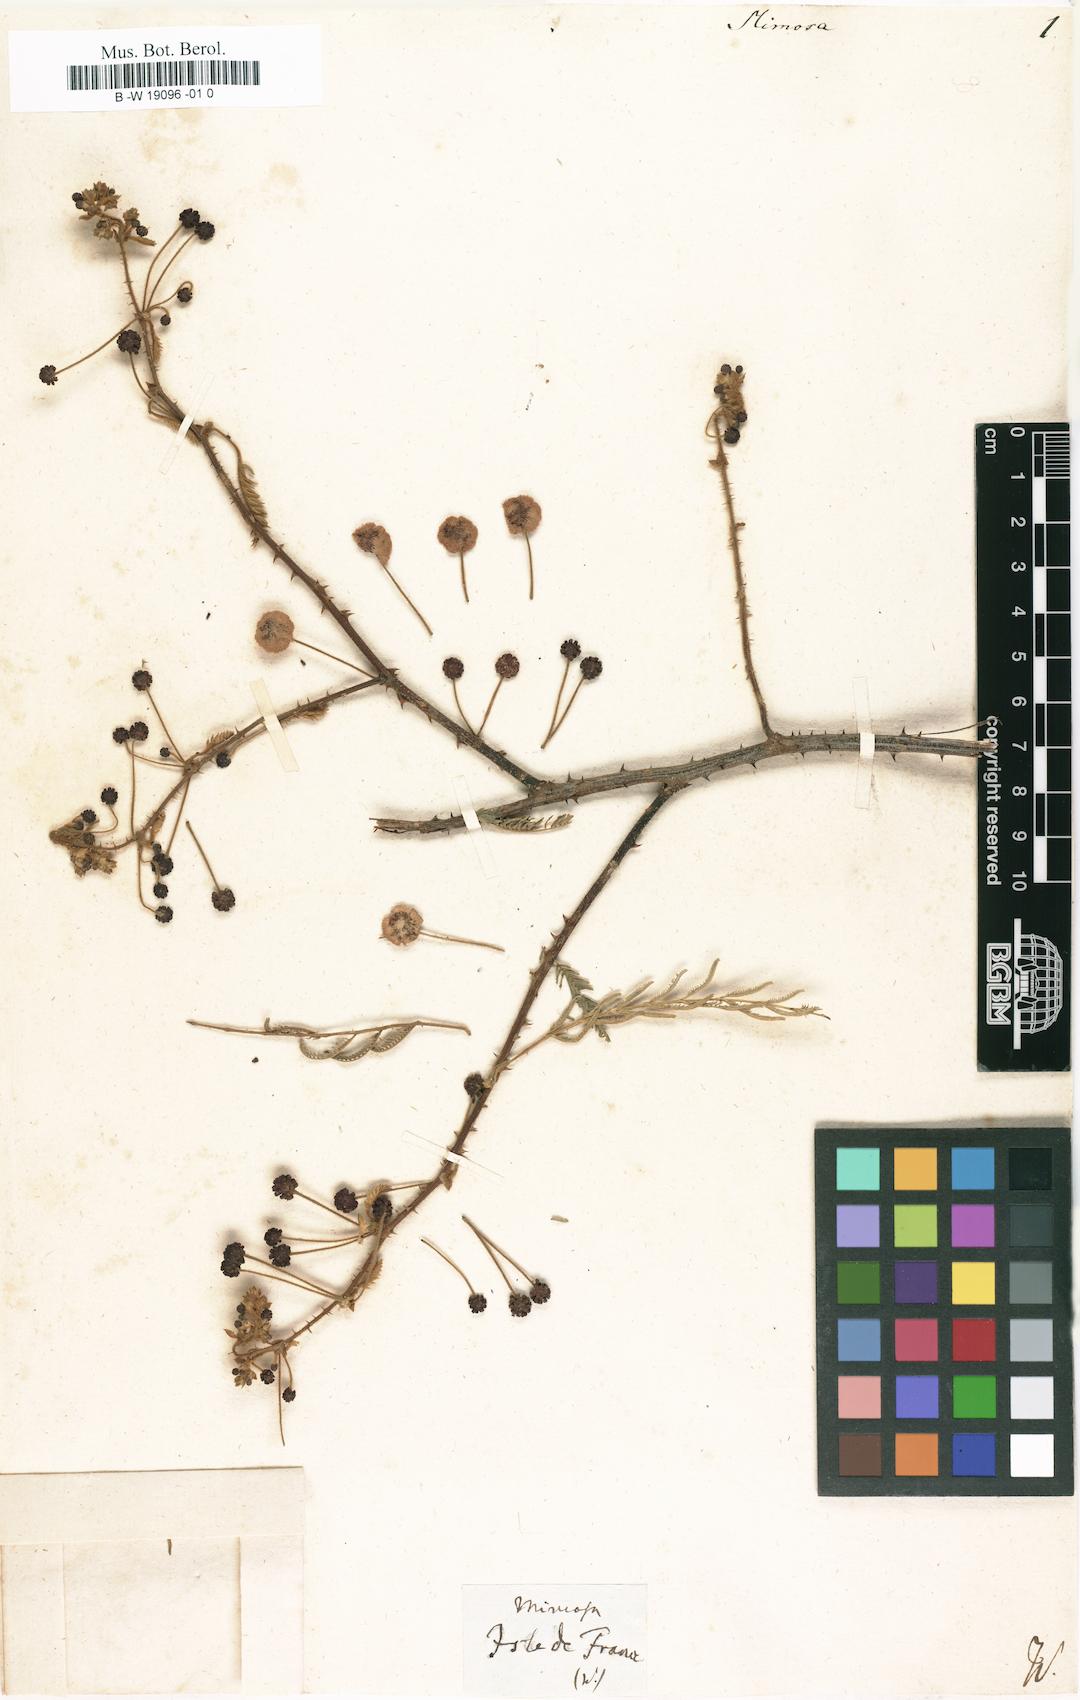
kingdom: Plantae
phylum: Tracheophyta
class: Magnoliopsida
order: Fabales
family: Fabaceae
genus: Mimosa
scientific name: Mimosa
